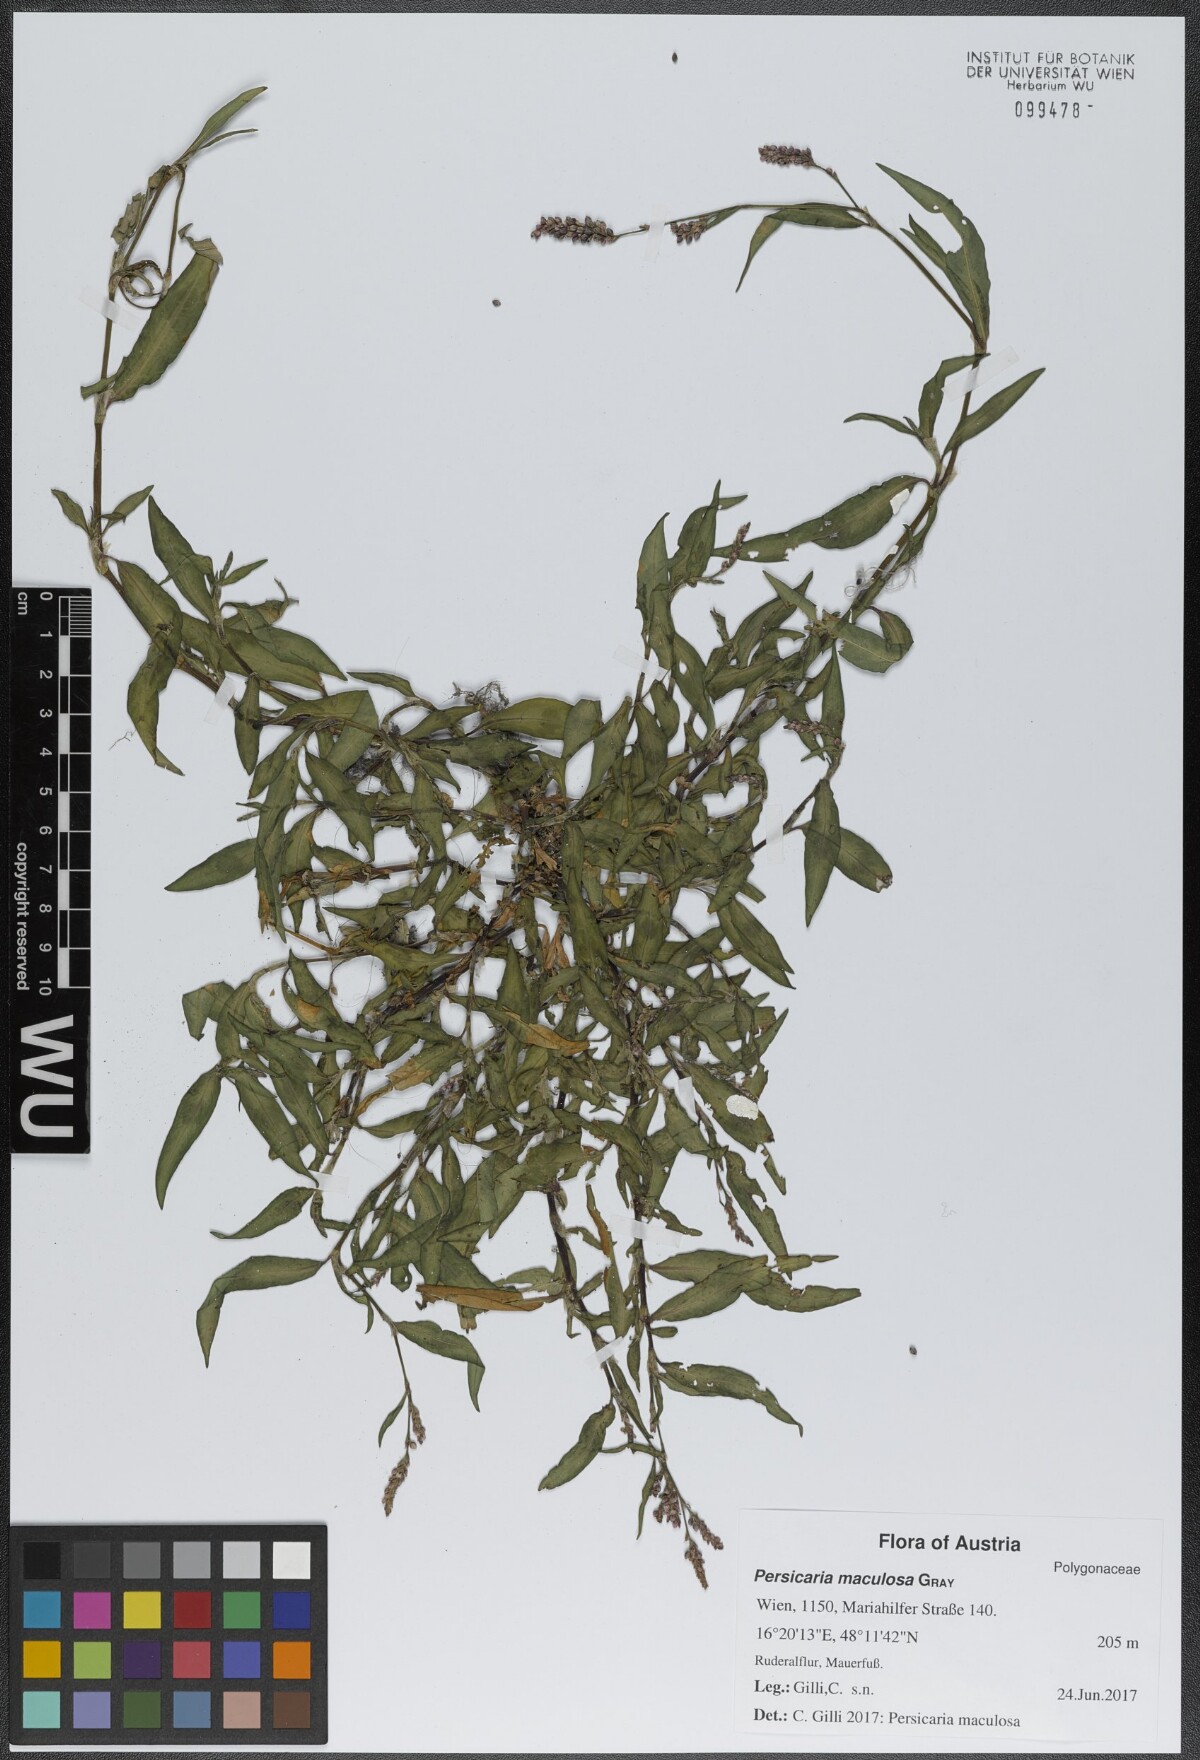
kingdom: Plantae
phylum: Tracheophyta
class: Magnoliopsida
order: Caryophyllales
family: Polygonaceae
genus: Persicaria
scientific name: Persicaria maculosa
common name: Redshank
